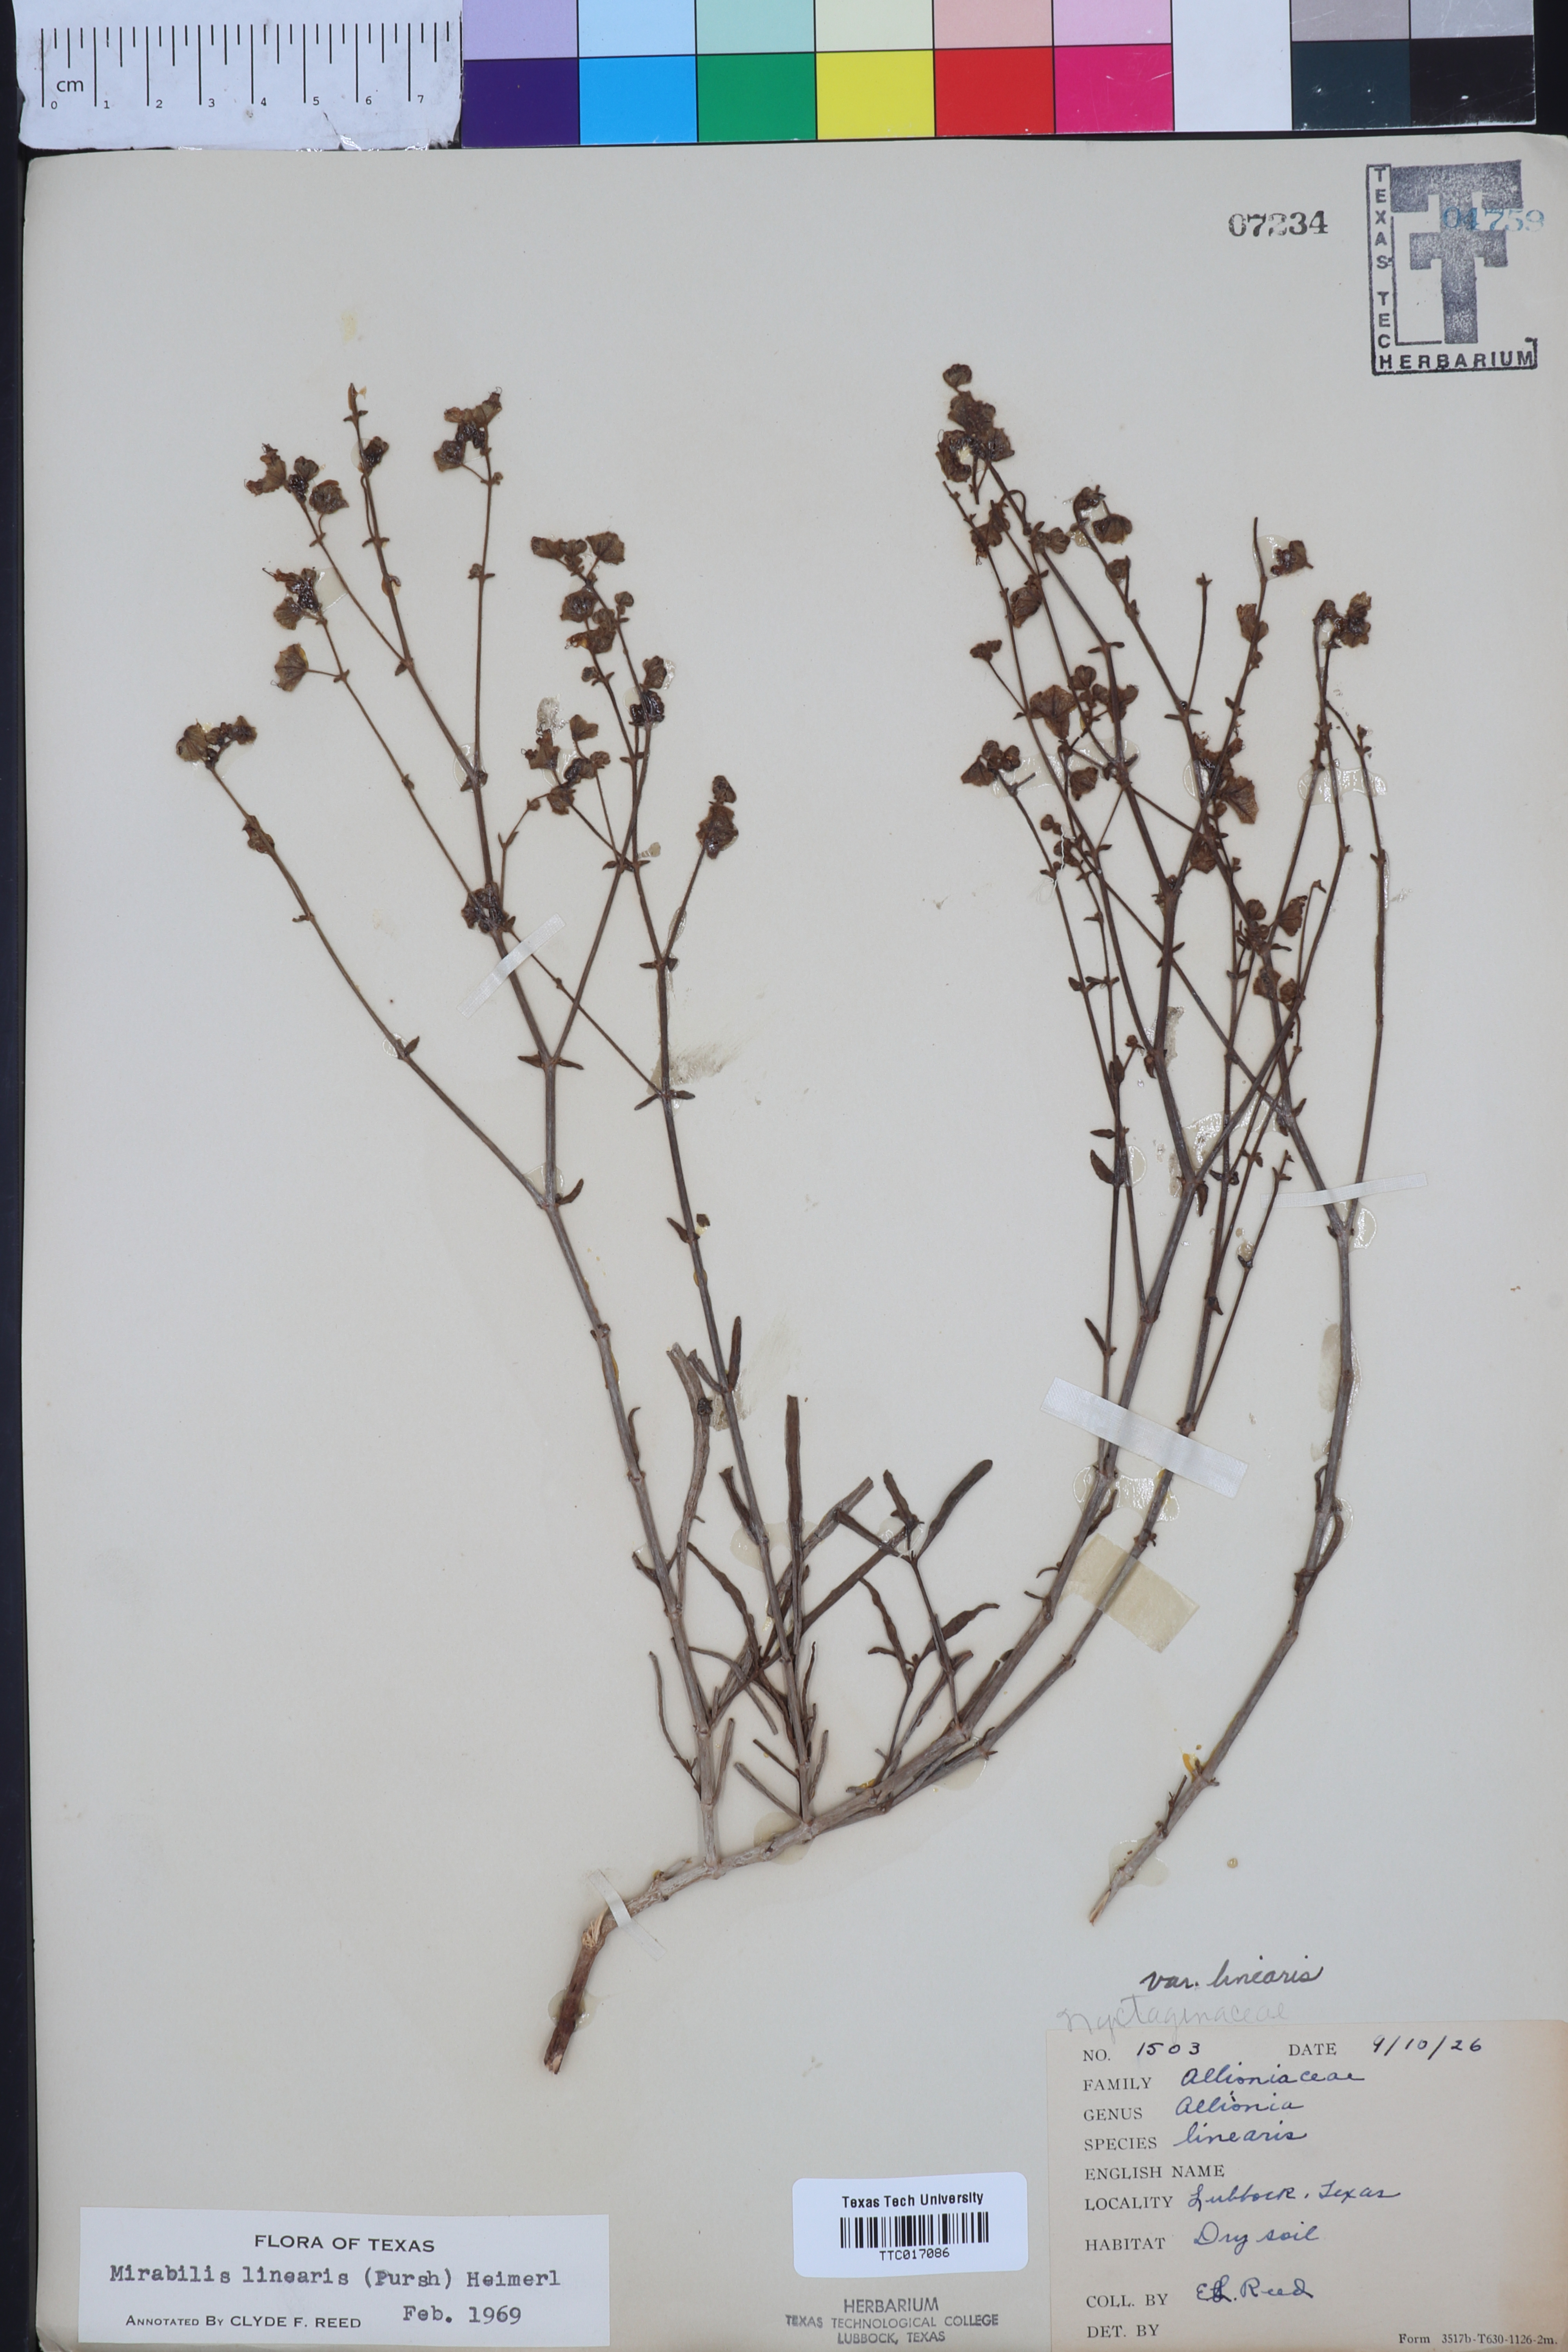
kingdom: Plantae
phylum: Tracheophyta
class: Magnoliopsida
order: Caryophyllales
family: Nyctaginaceae
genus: Mirabilis
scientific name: Mirabilis linearis
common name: Linear-leaved four-o'clock
